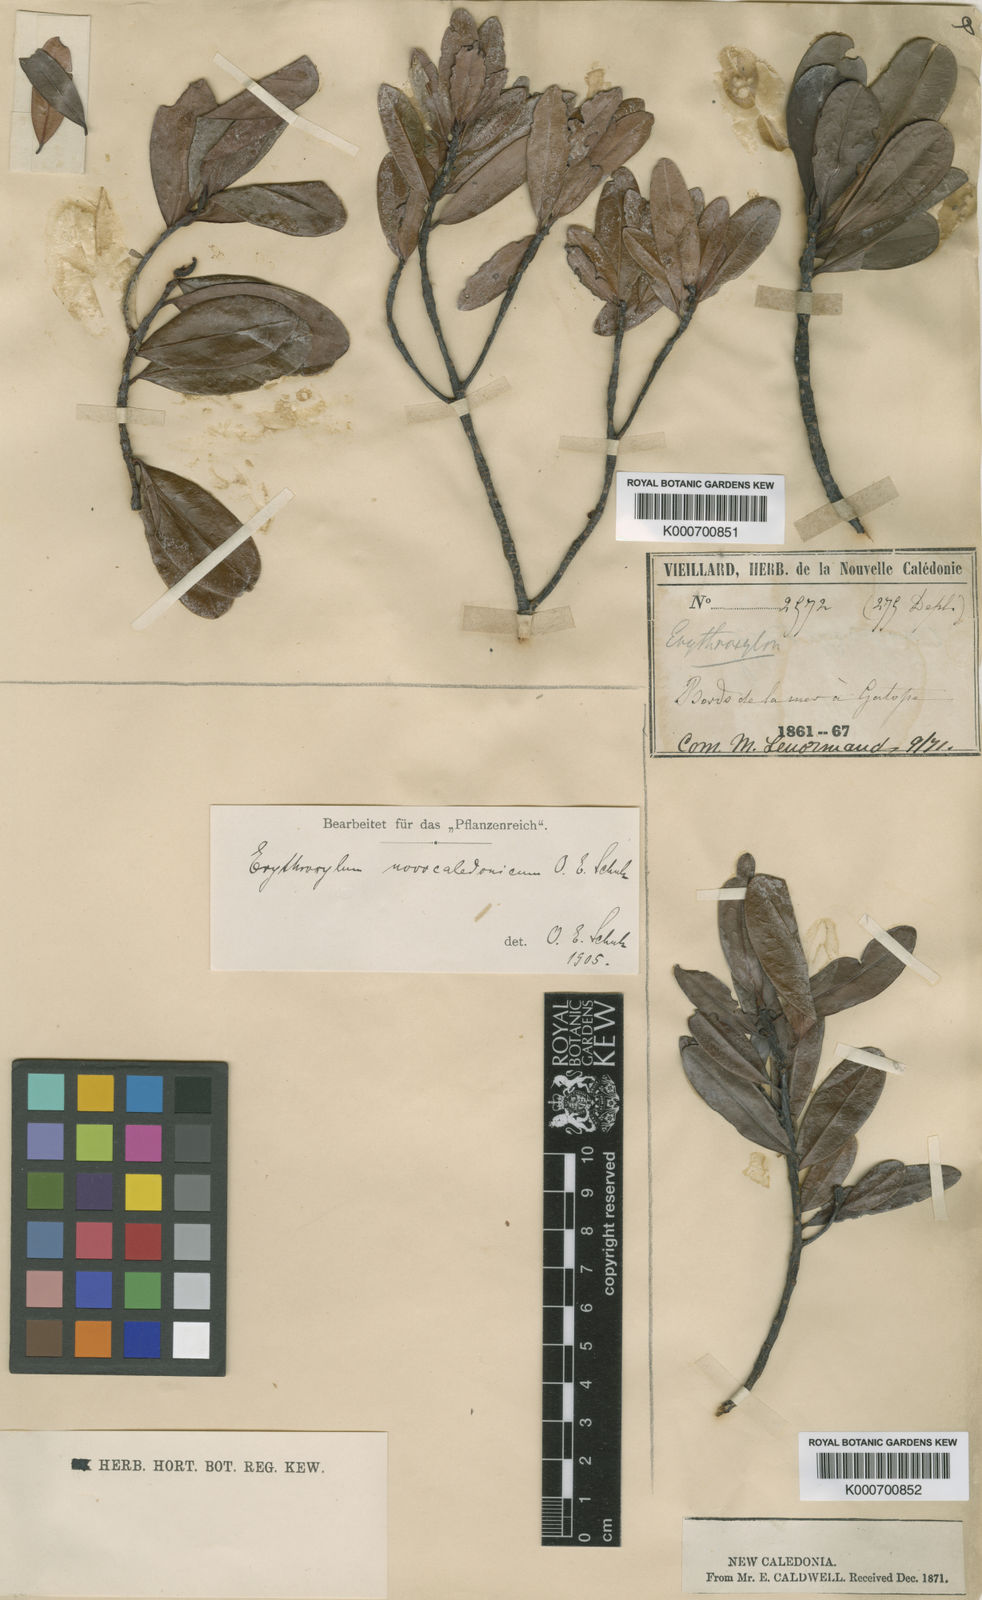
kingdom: Plantae
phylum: Tracheophyta
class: Magnoliopsida
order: Malpighiales
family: Erythroxylaceae
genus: Erythroxylum
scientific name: Erythroxylum novocaledonicum
